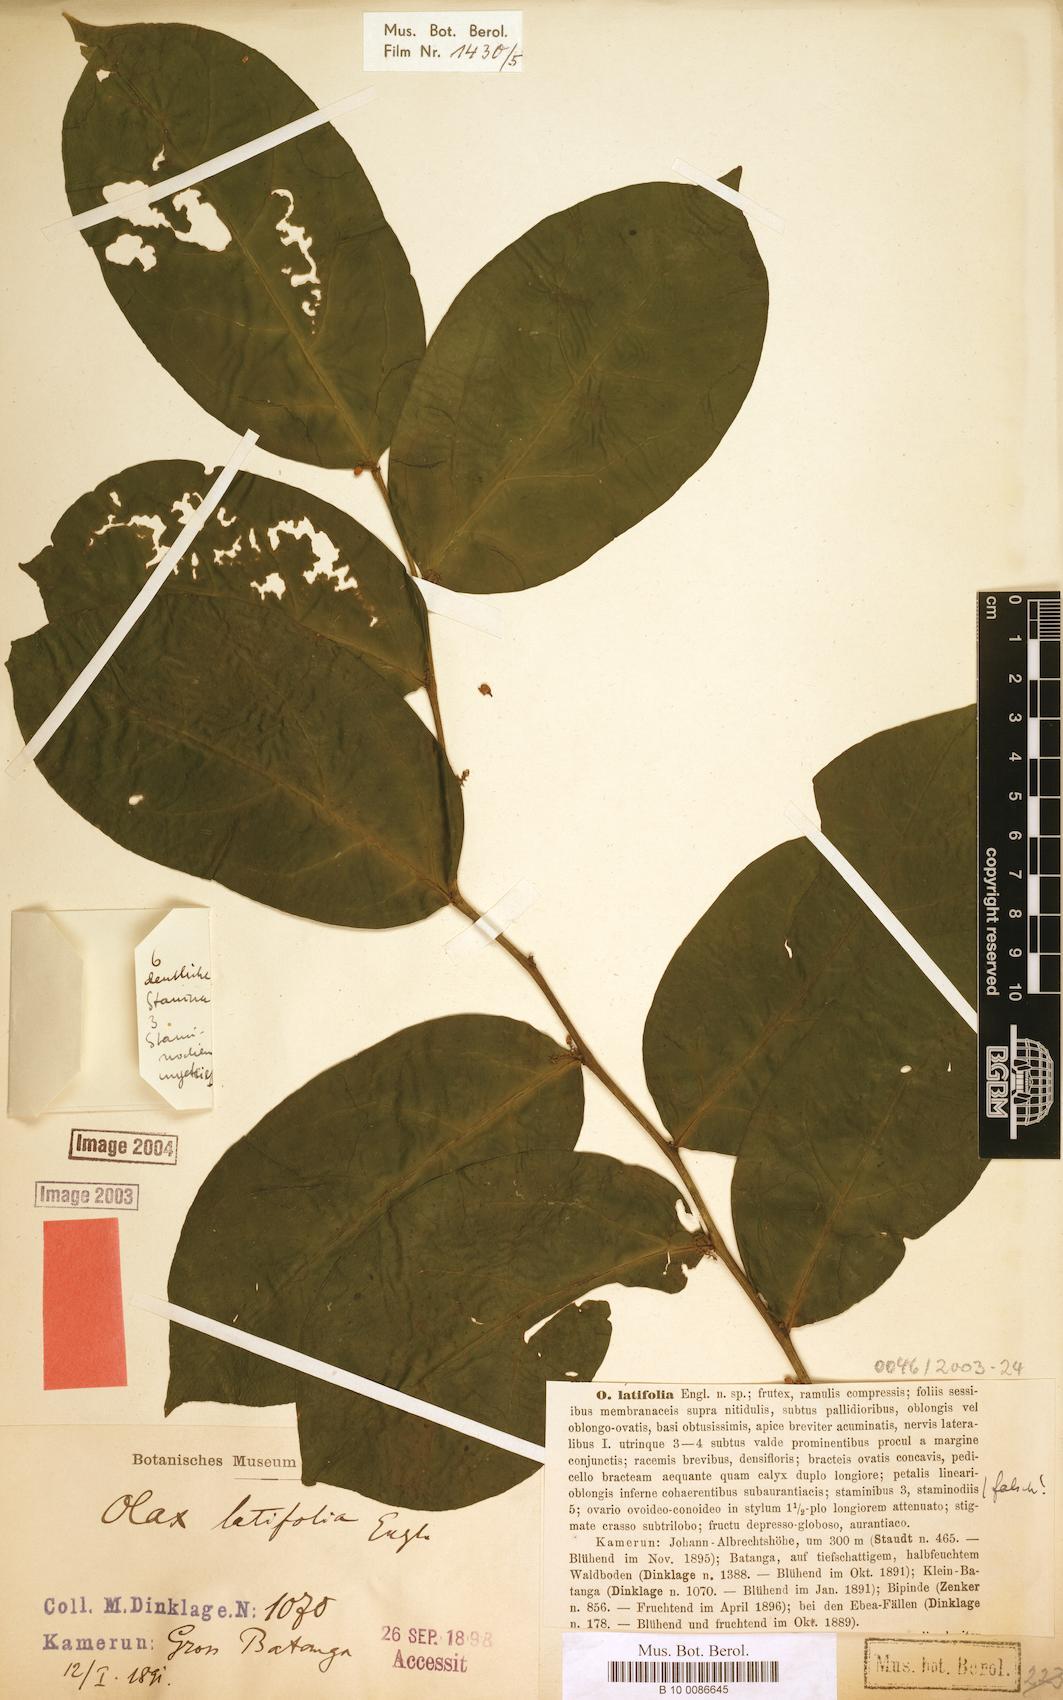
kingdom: Plantae
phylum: Tracheophyta
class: Magnoliopsida
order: Santalales
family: Olacaceae
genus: Olax
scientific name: Olax latifolia
